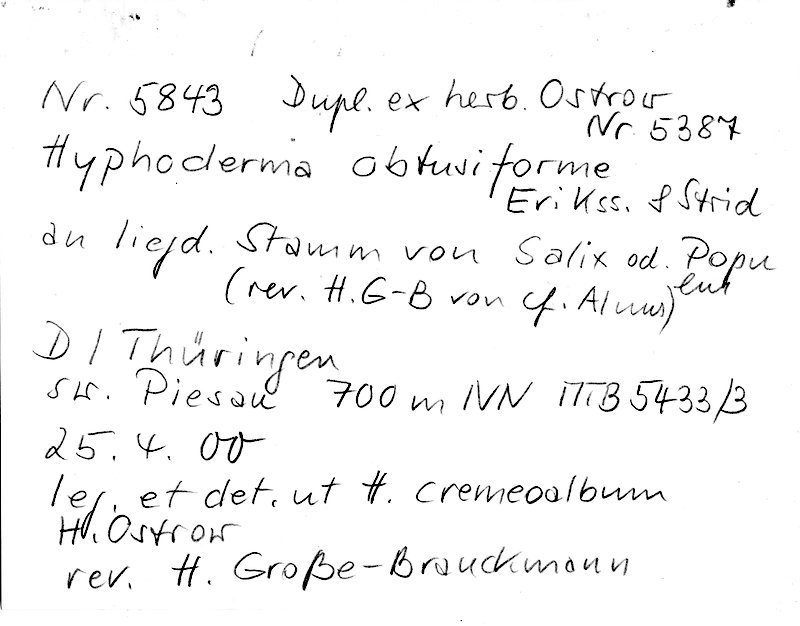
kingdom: Plantae
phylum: Tracheophyta
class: Magnoliopsida
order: Malpighiales
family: Salicaceae
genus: Salix
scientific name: Salix
